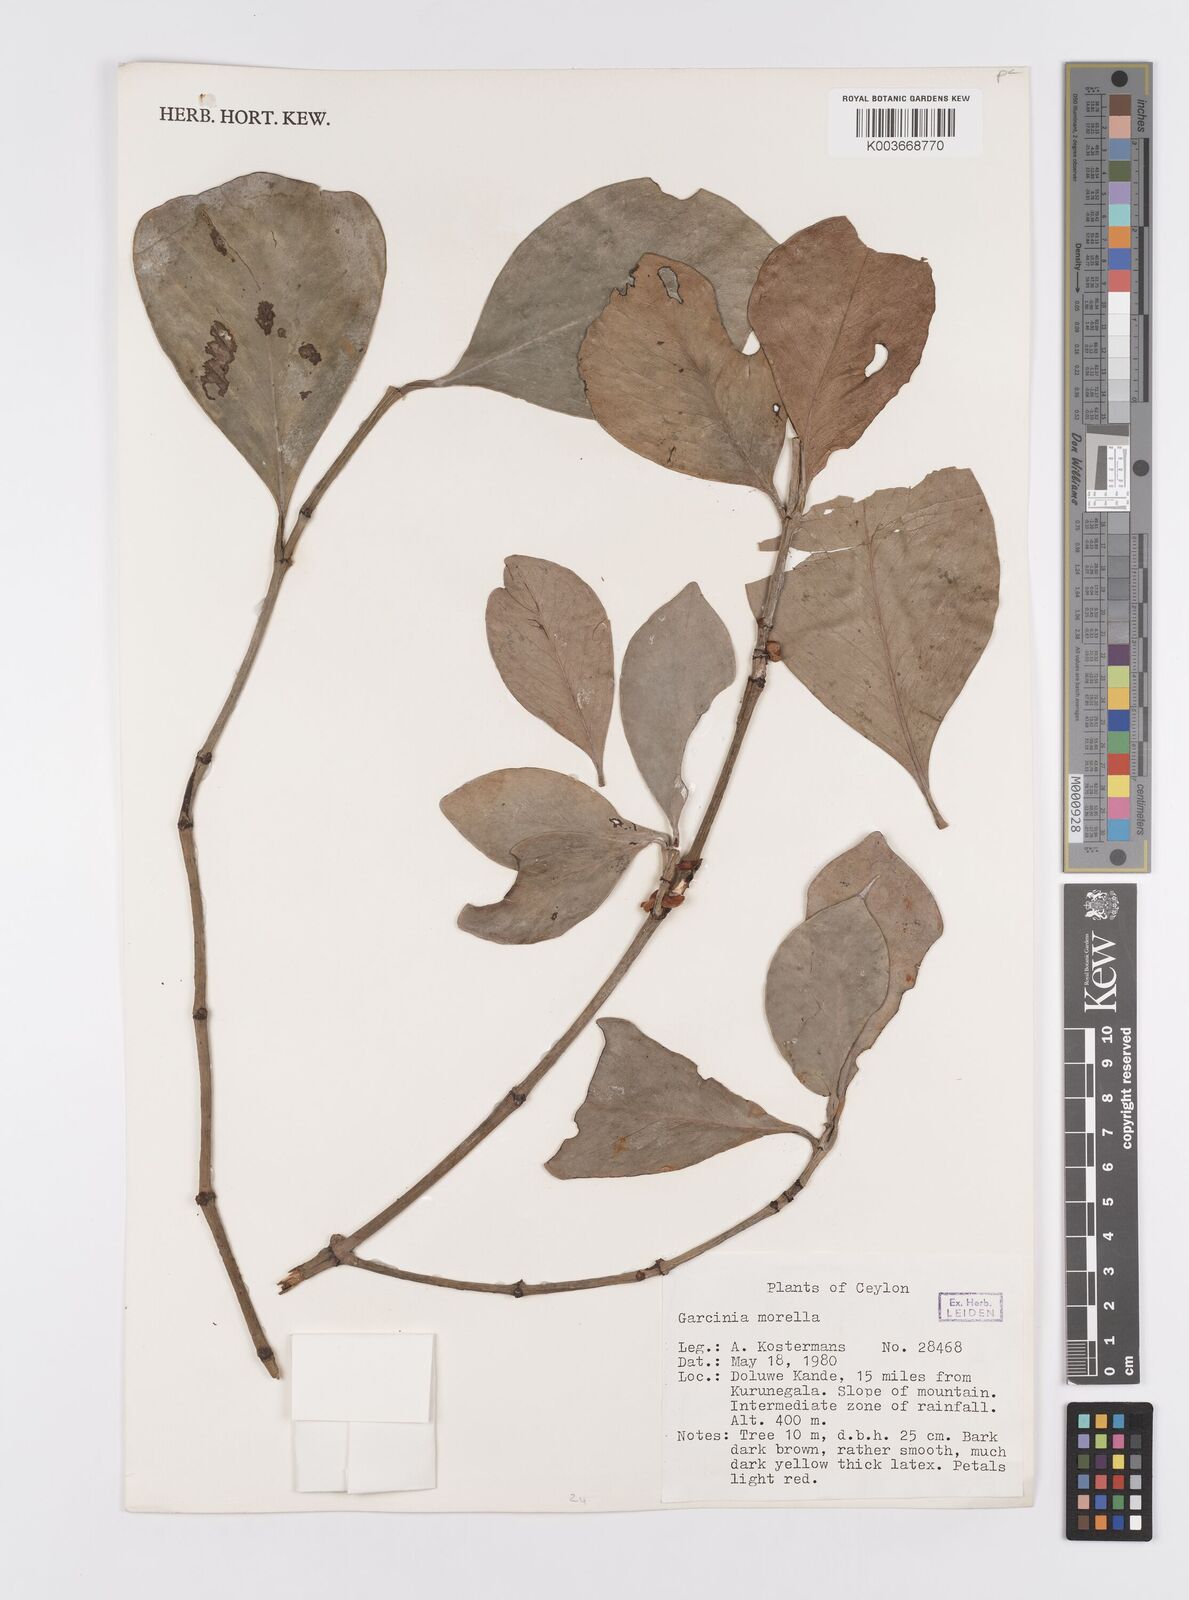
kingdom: Plantae
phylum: Tracheophyta
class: Magnoliopsida
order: Malpighiales
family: Clusiaceae
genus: Garcinia
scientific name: Garcinia morella
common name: Indian gamboge-tree
